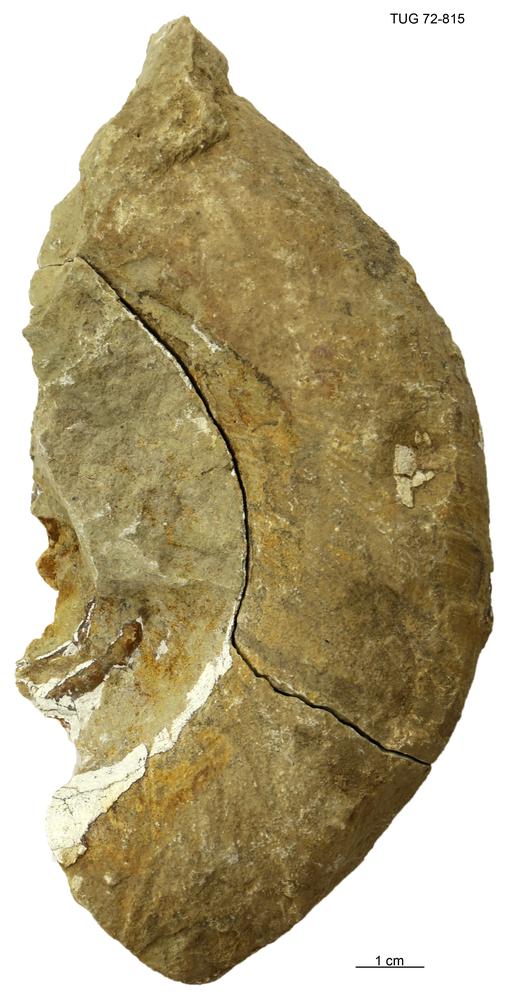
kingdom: Animalia
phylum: Mollusca
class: Cephalopoda
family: Trocholitidae
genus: Discoceras
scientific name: Discoceras
